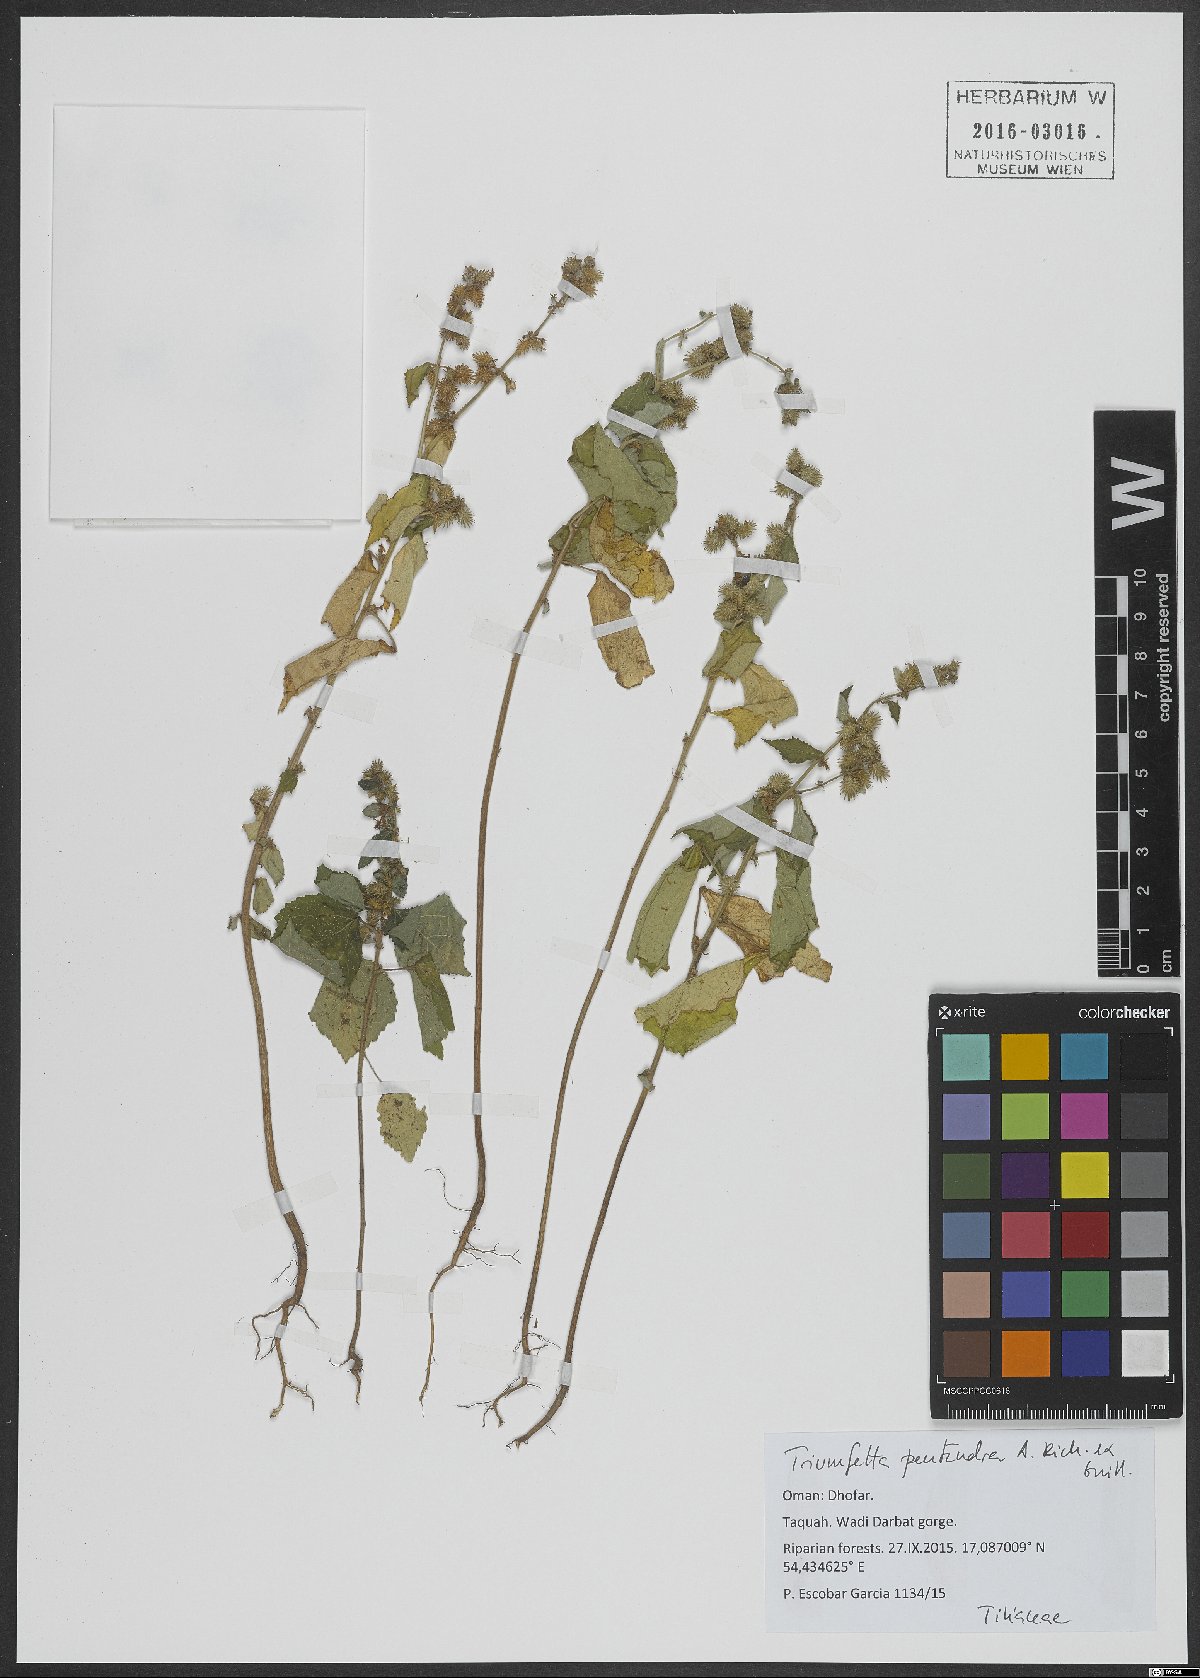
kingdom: Plantae
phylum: Tracheophyta
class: Magnoliopsida
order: Malvales
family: Malvaceae
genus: Triumfetta
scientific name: Triumfetta pentandra
